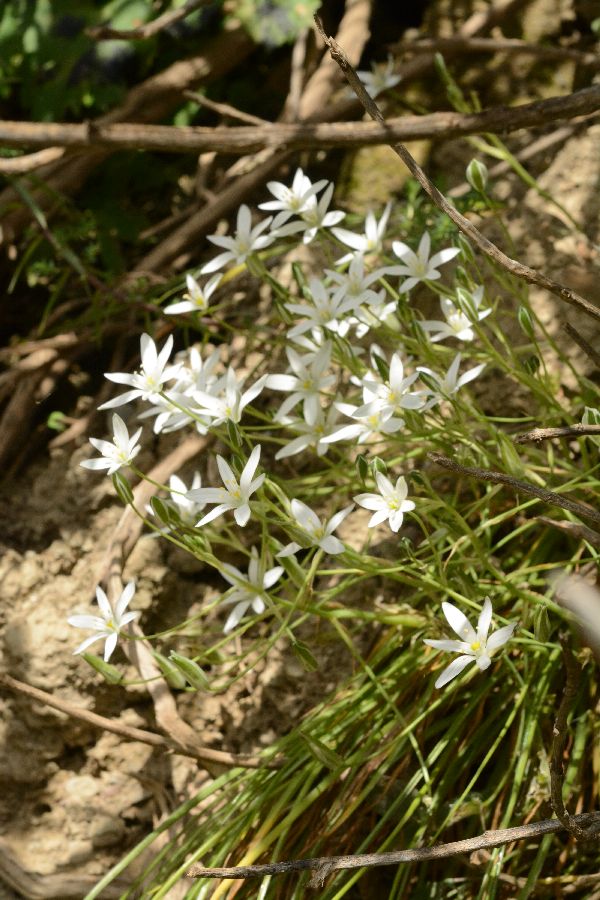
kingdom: Plantae
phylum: Tracheophyta
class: Liliopsida
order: Asparagales
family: Asparagaceae
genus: Ornithogalum
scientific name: Ornithogalum
